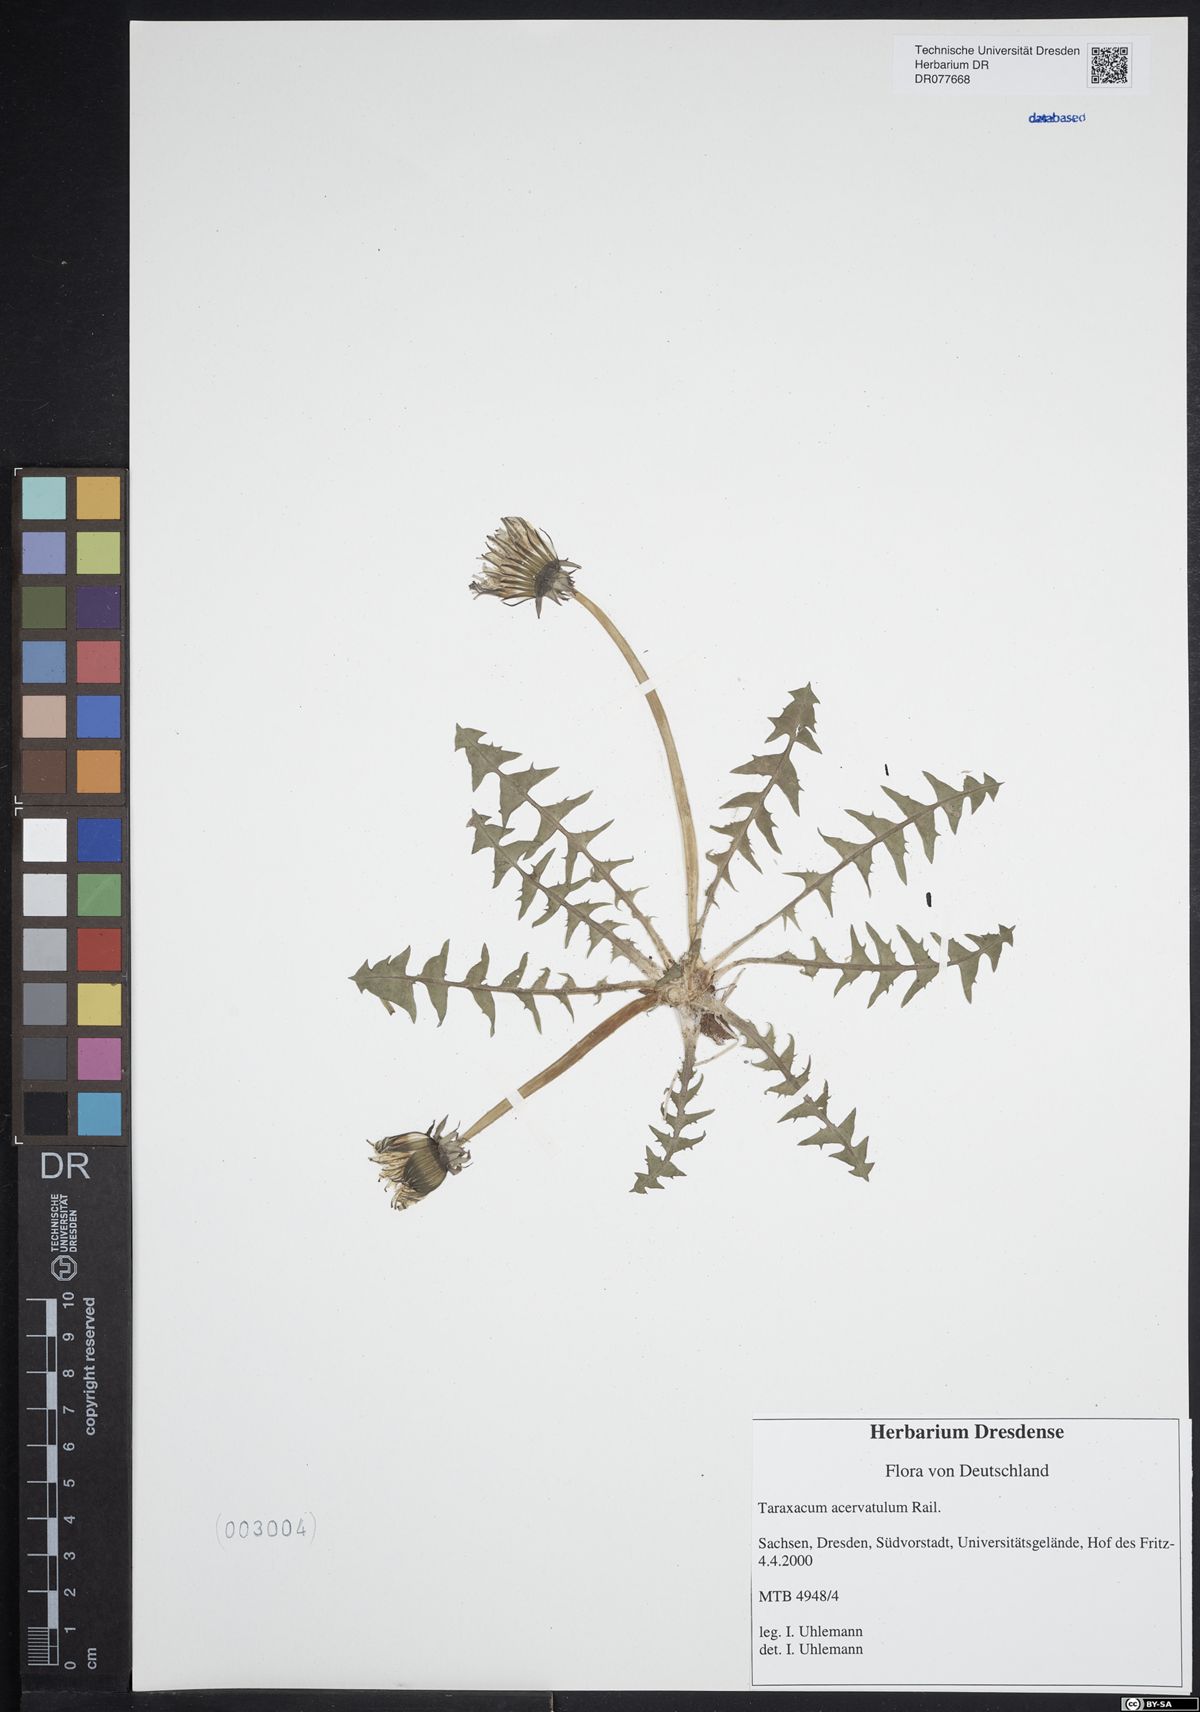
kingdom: Plantae
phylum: Tracheophyta
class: Magnoliopsida
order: Asterales
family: Asteraceae
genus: Taraxacum
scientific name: Taraxacum acervatulum
